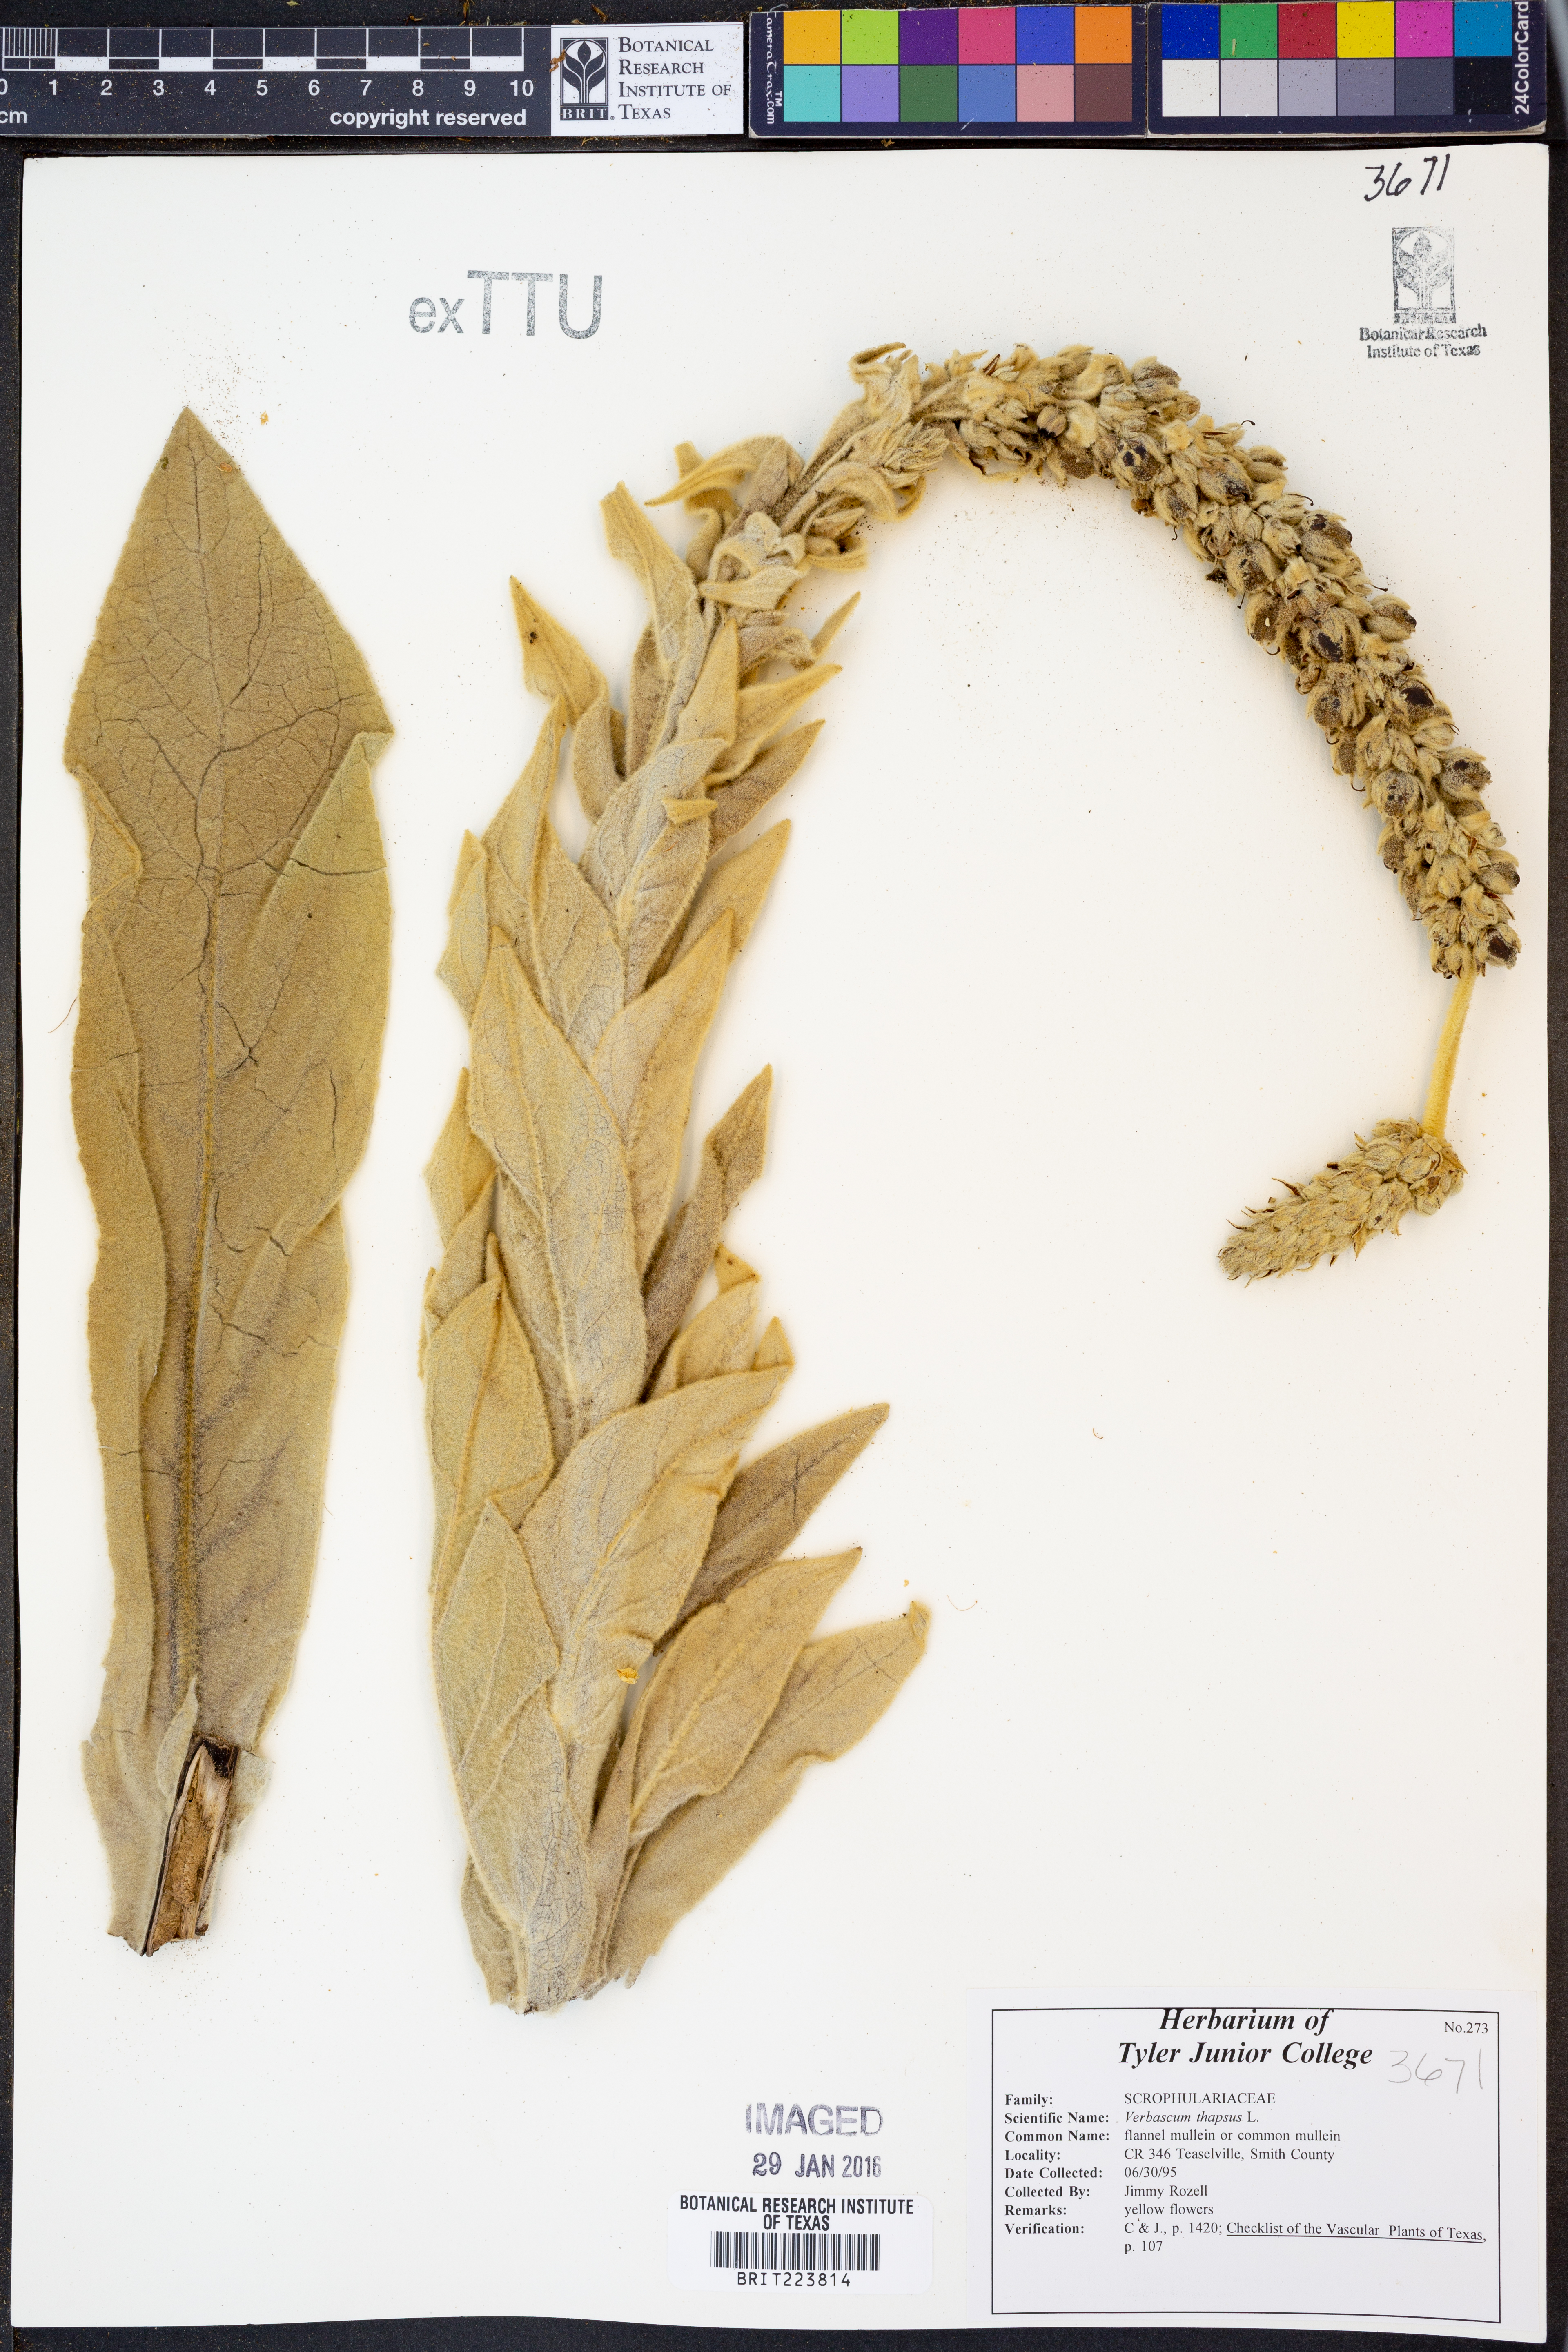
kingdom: Plantae
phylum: Tracheophyta
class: Magnoliopsida
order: Lamiales
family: Scrophulariaceae
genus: Verbascum
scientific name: Verbascum thapsus
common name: Common mullein
